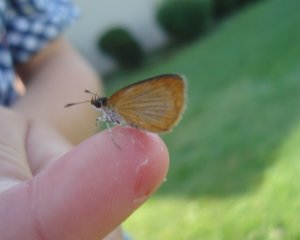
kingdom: Animalia
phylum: Arthropoda
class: Insecta
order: Lepidoptera
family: Hesperiidae
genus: Thymelicus
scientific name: Thymelicus lineola
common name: European Skipper
